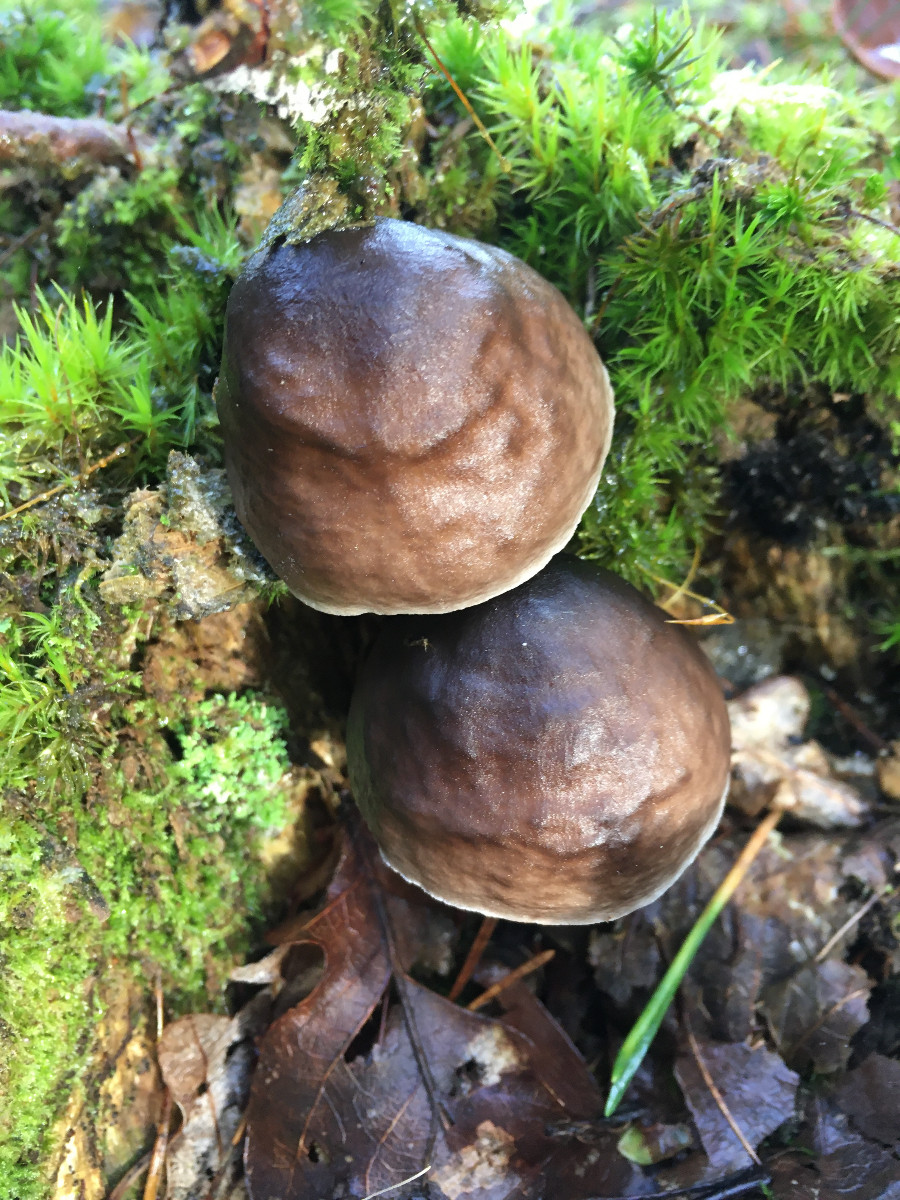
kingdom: Fungi
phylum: Basidiomycota
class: Agaricomycetes
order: Agaricales
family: Pluteaceae
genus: Pluteus
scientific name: Pluteus cervinus
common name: sodfarvet skærmhat
